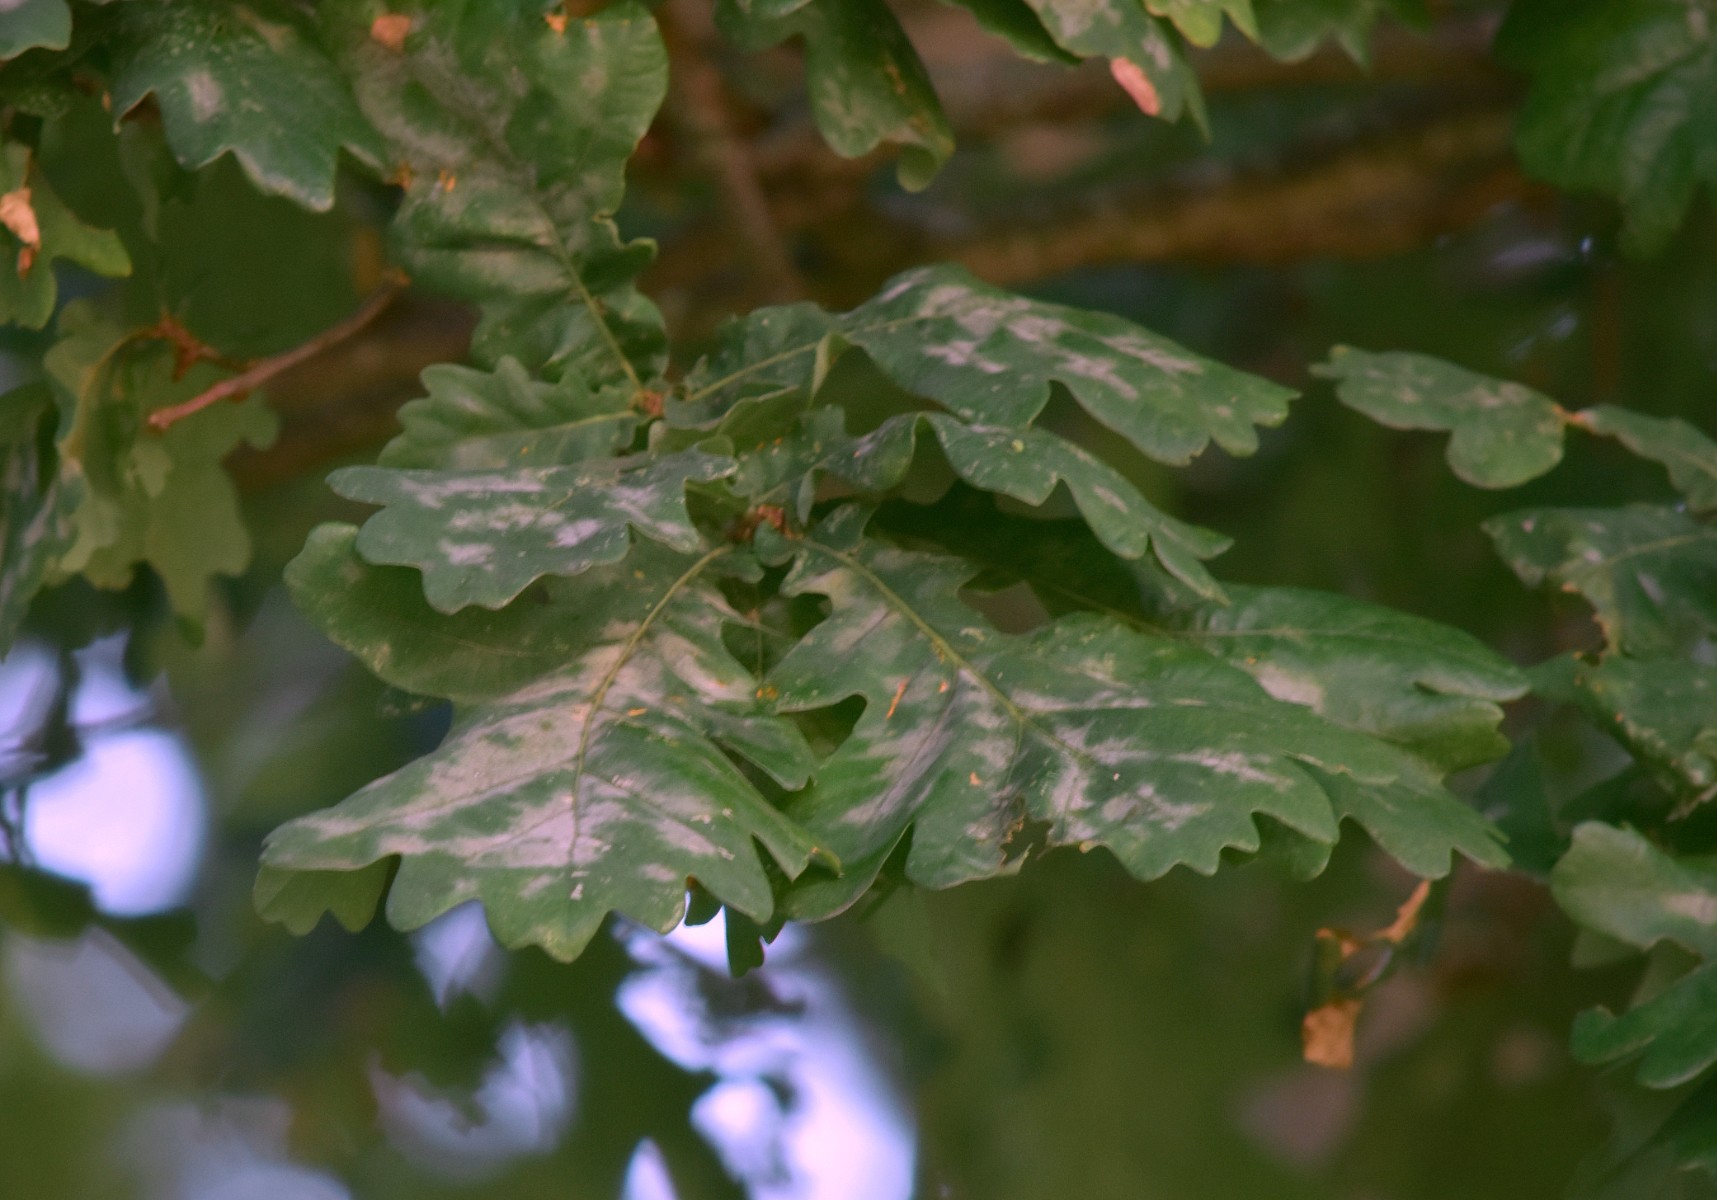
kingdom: Fungi
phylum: Ascomycota
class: Leotiomycetes
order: Helotiales
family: Erysiphaceae
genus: Erysiphe
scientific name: Erysiphe alphitoides
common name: ege-meldug
